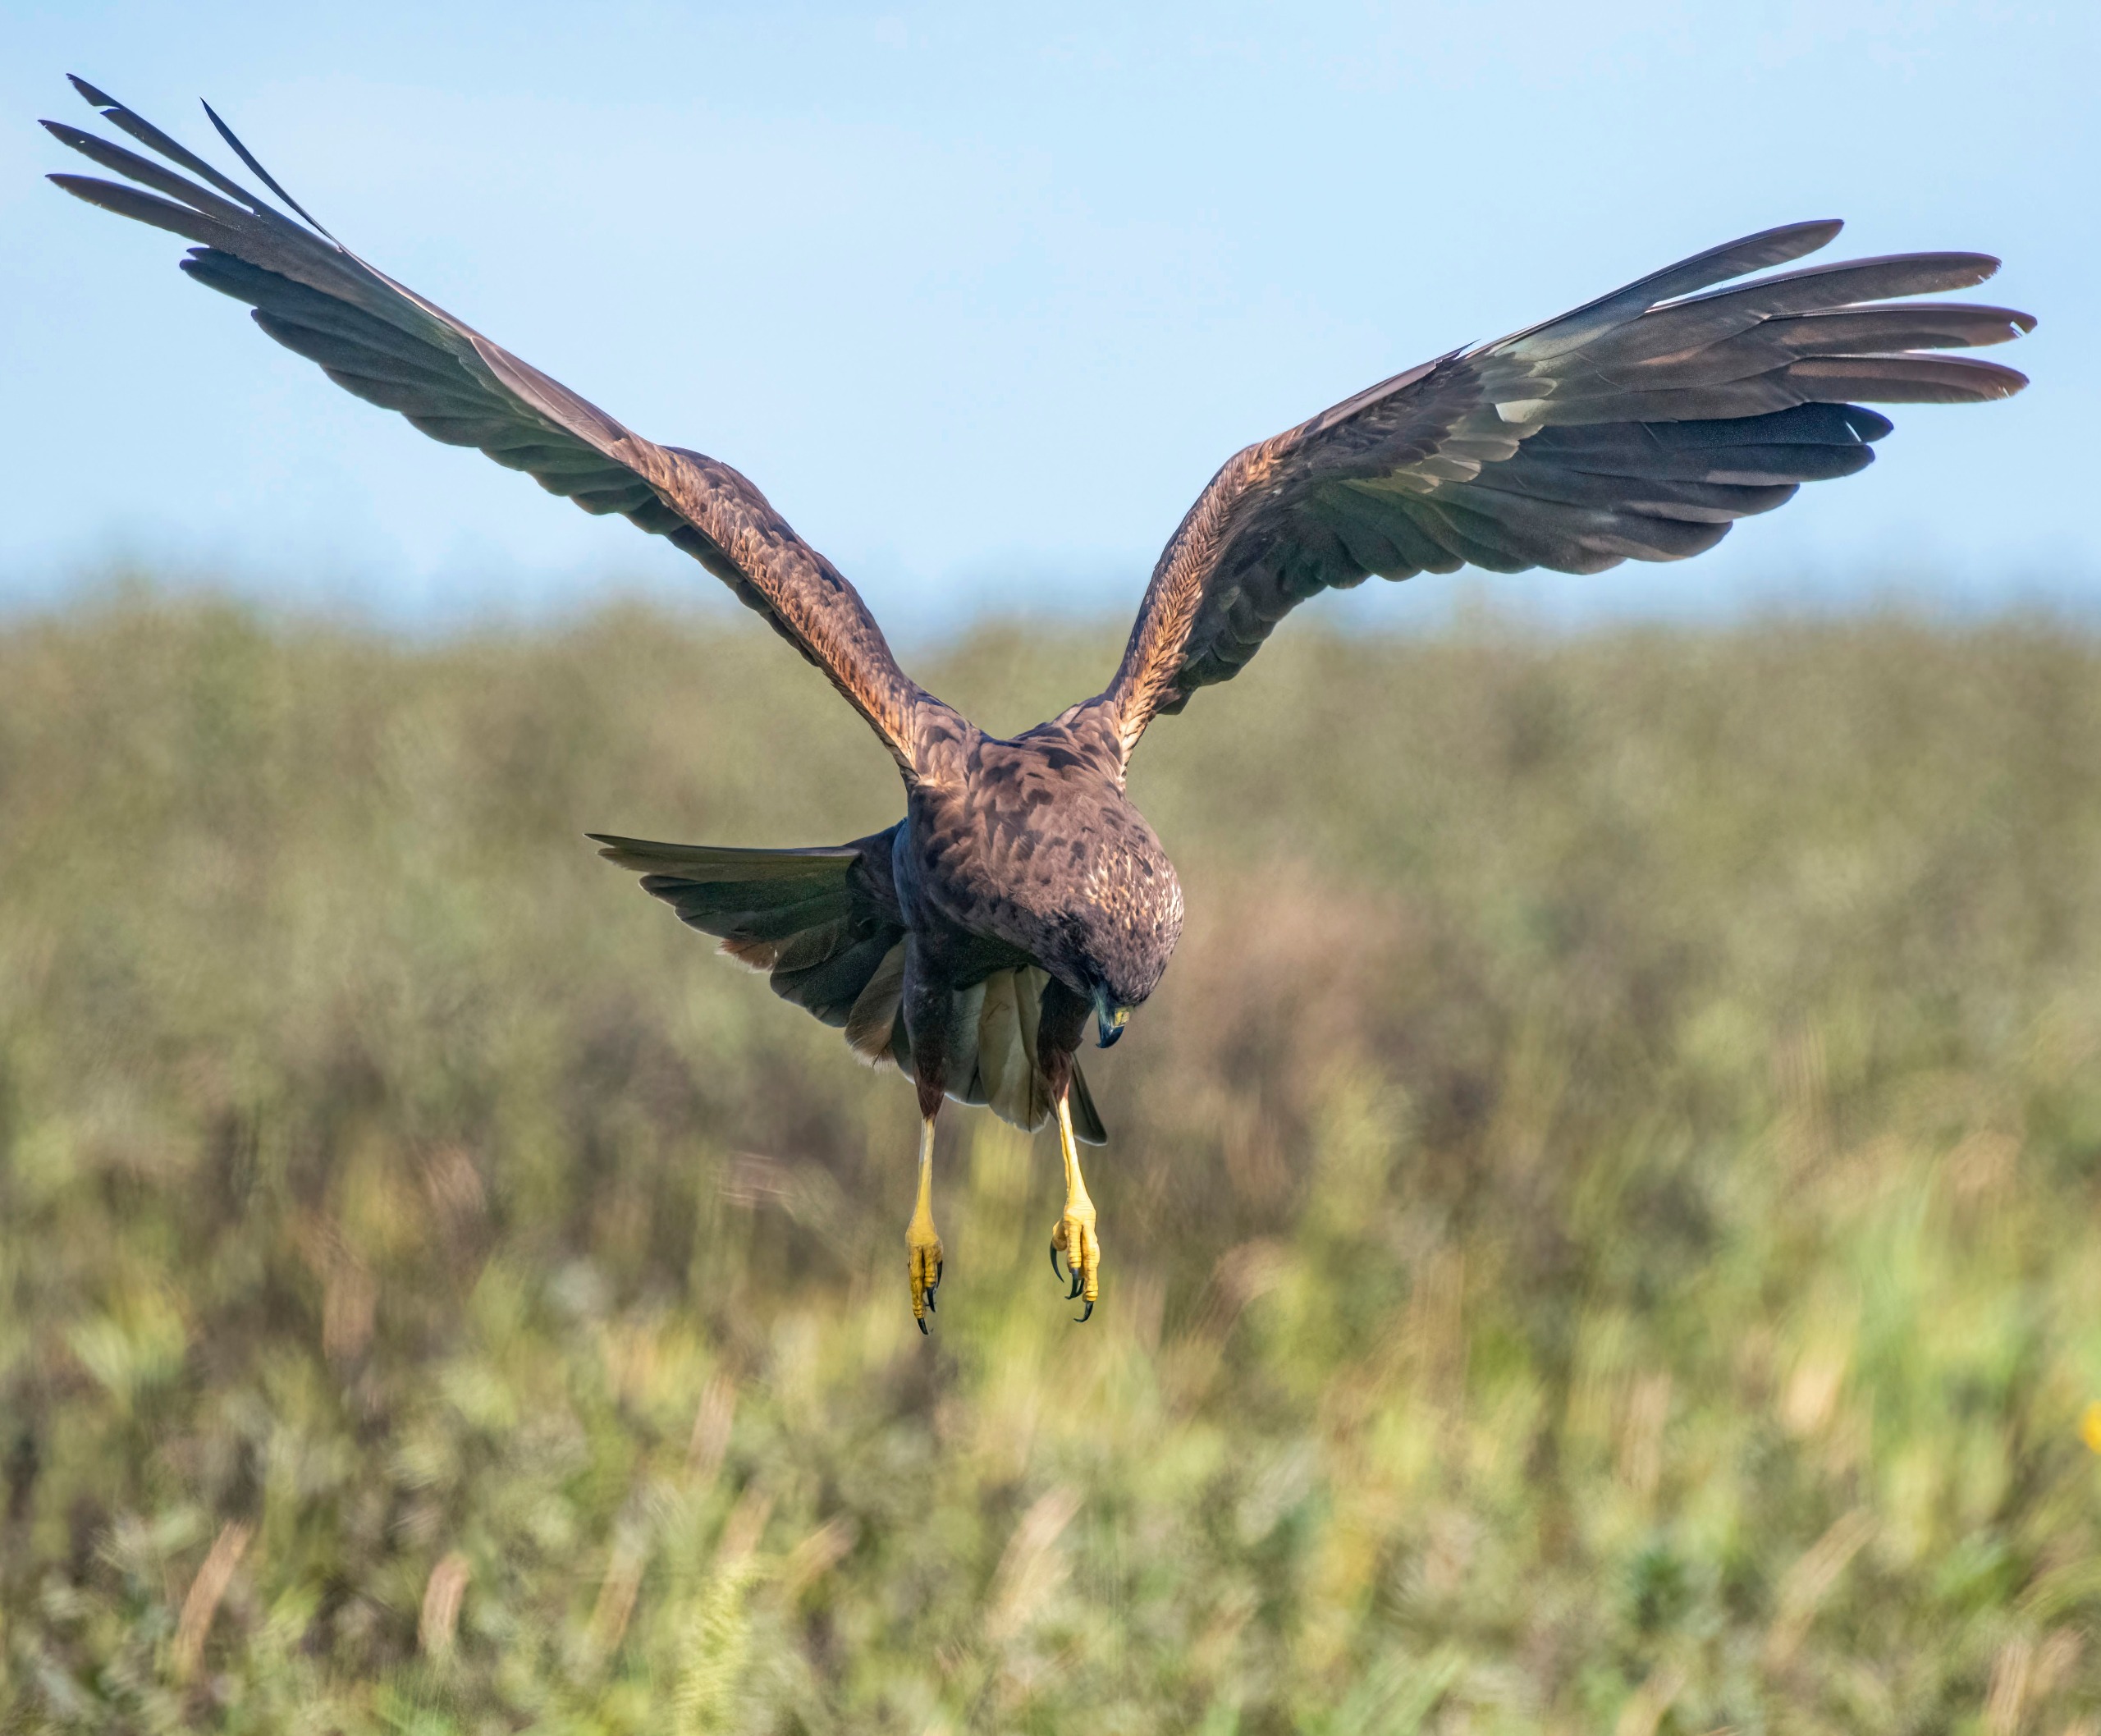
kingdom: Animalia
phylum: Chordata
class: Aves
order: Accipitriformes
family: Accipitridae
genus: Circus
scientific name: Circus aeruginosus
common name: Rørhøg
